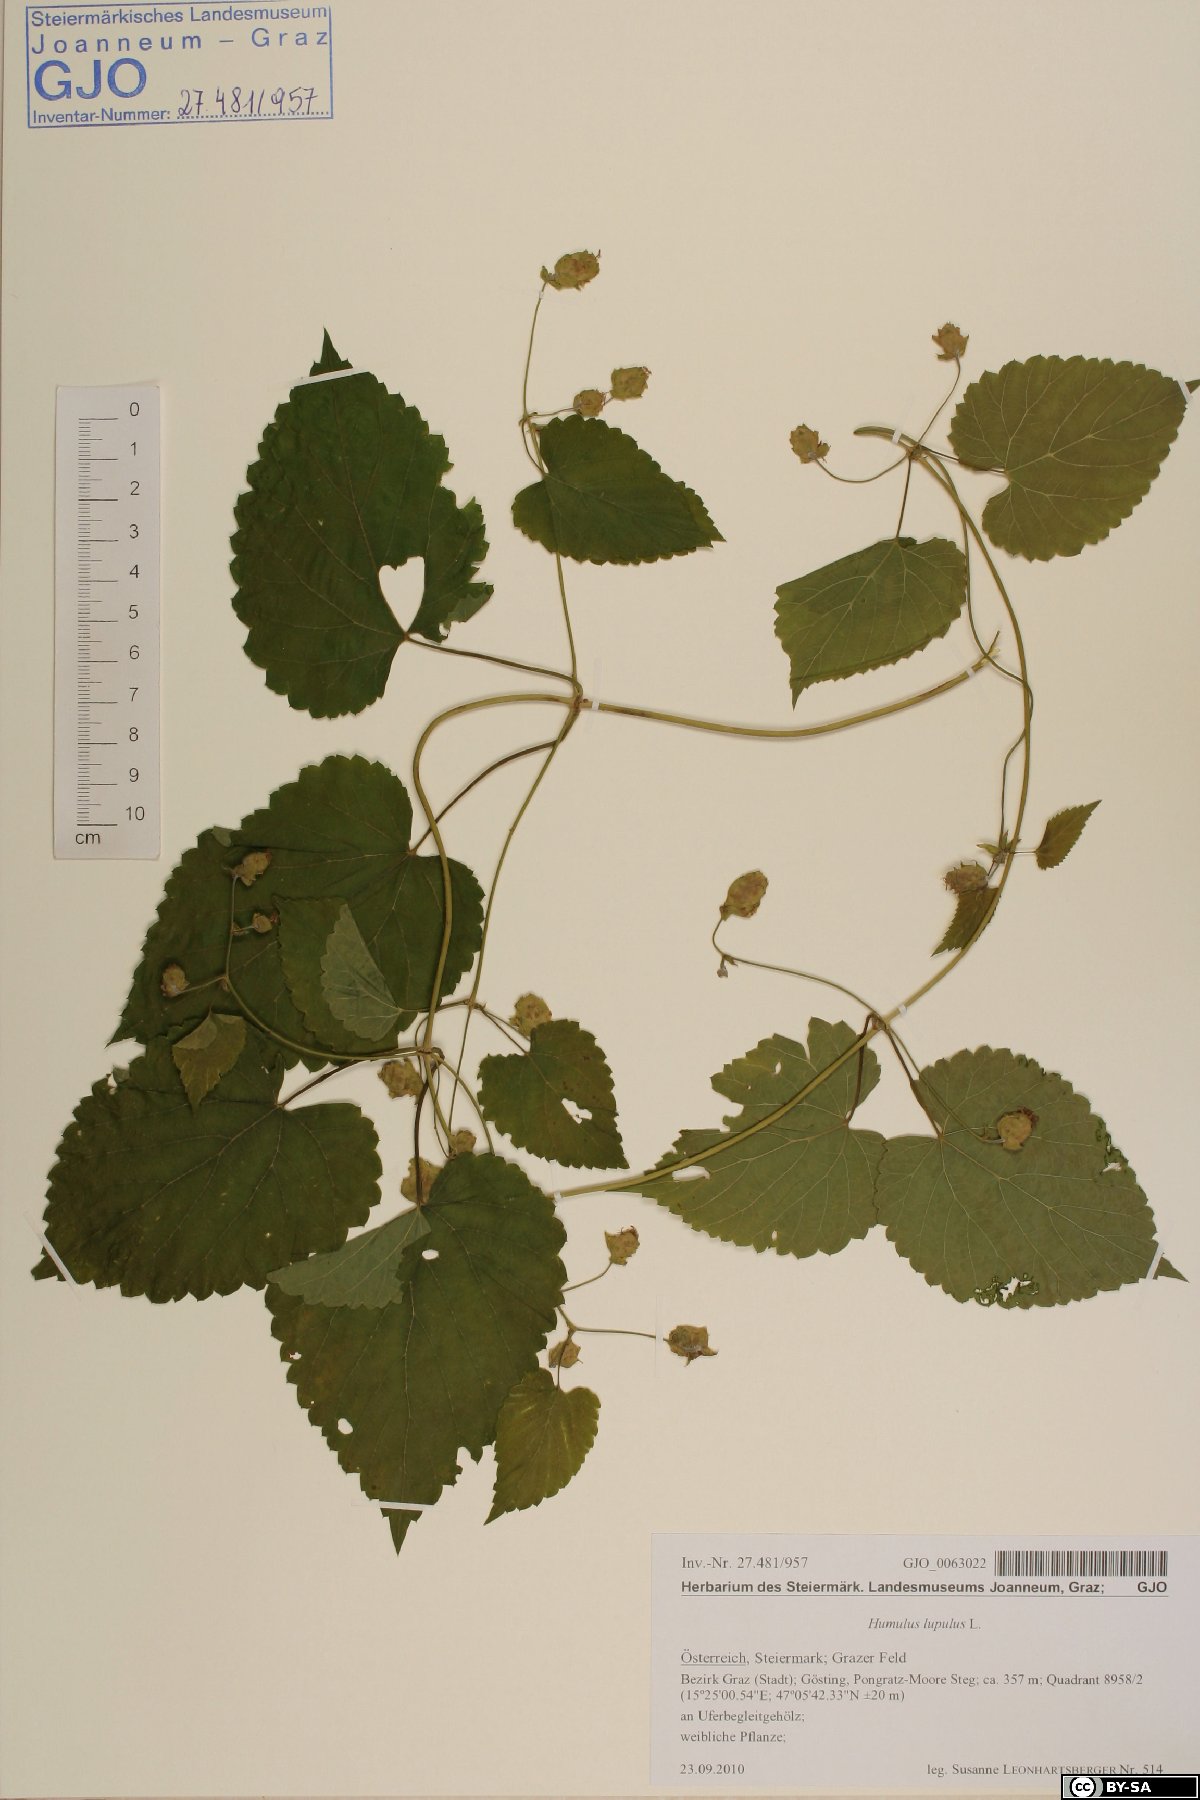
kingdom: Plantae
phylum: Tracheophyta
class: Magnoliopsida
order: Rosales
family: Cannabaceae
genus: Humulus
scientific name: Humulus lupulus
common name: Hop
